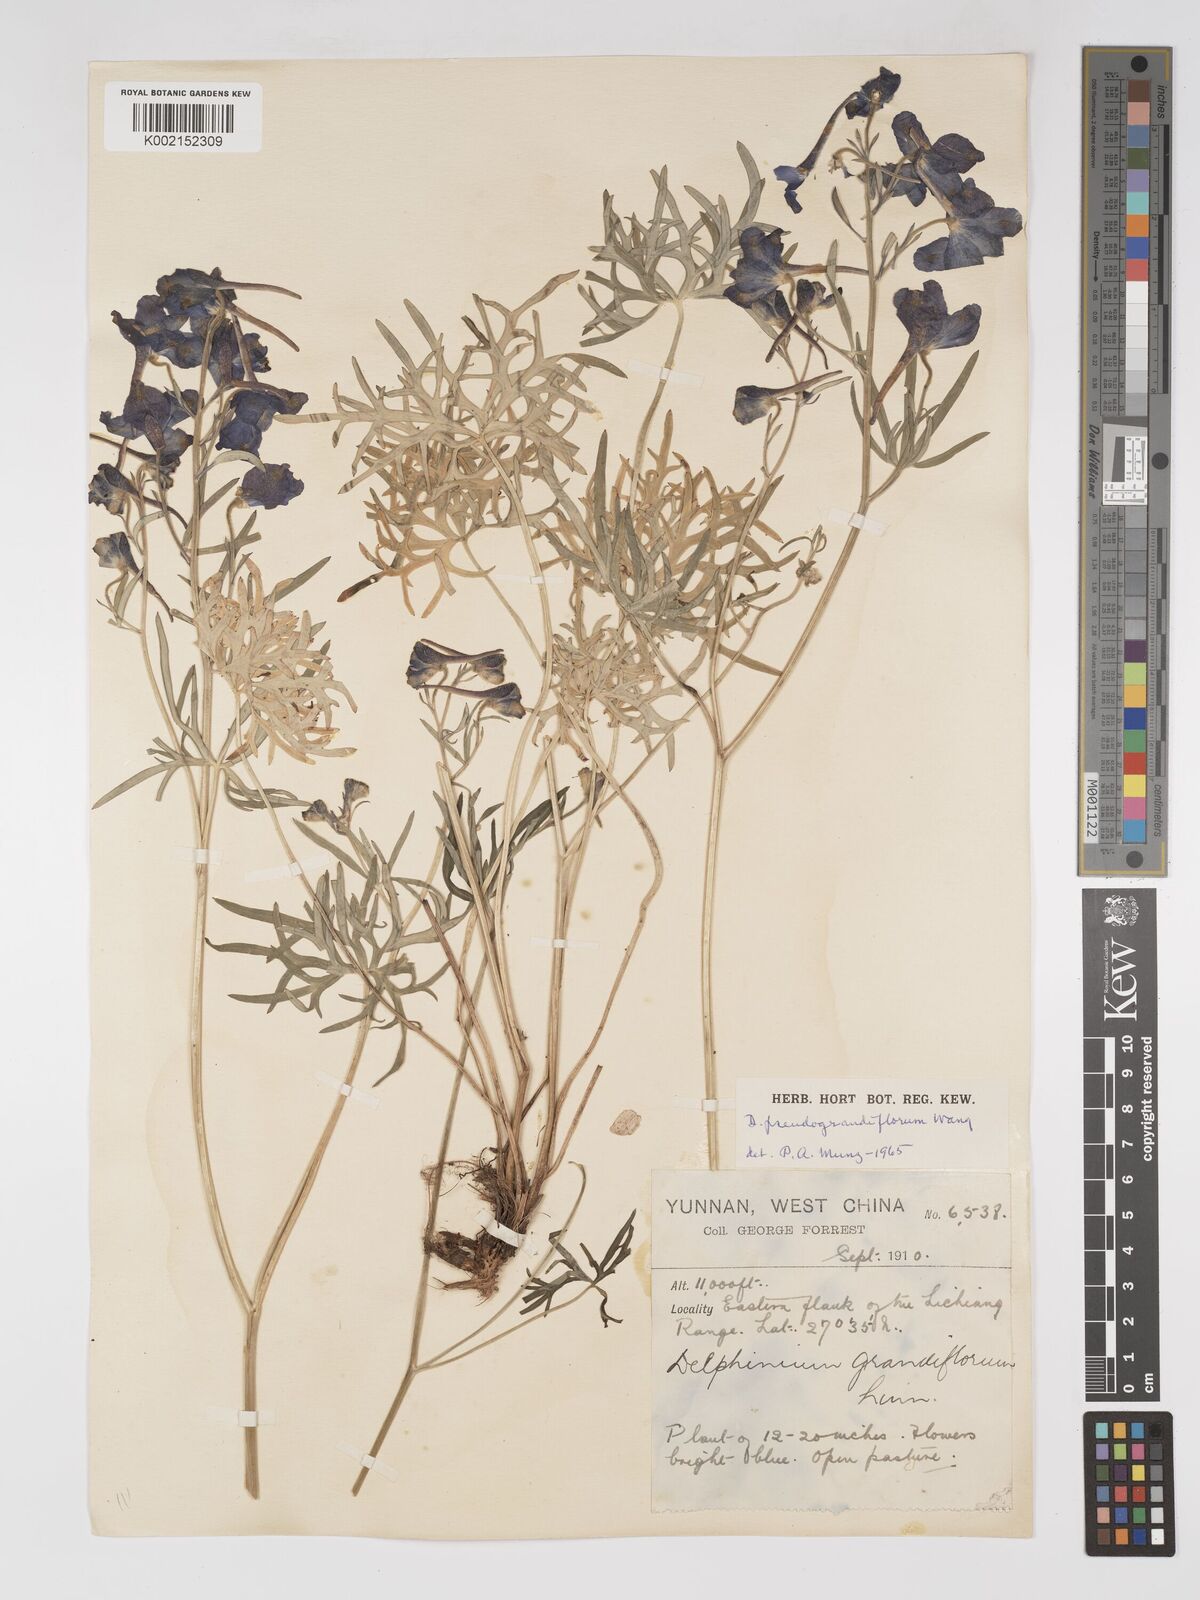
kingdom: Plantae
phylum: Tracheophyta
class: Magnoliopsida
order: Ranunculales
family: Ranunculaceae
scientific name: Ranunculaceae
